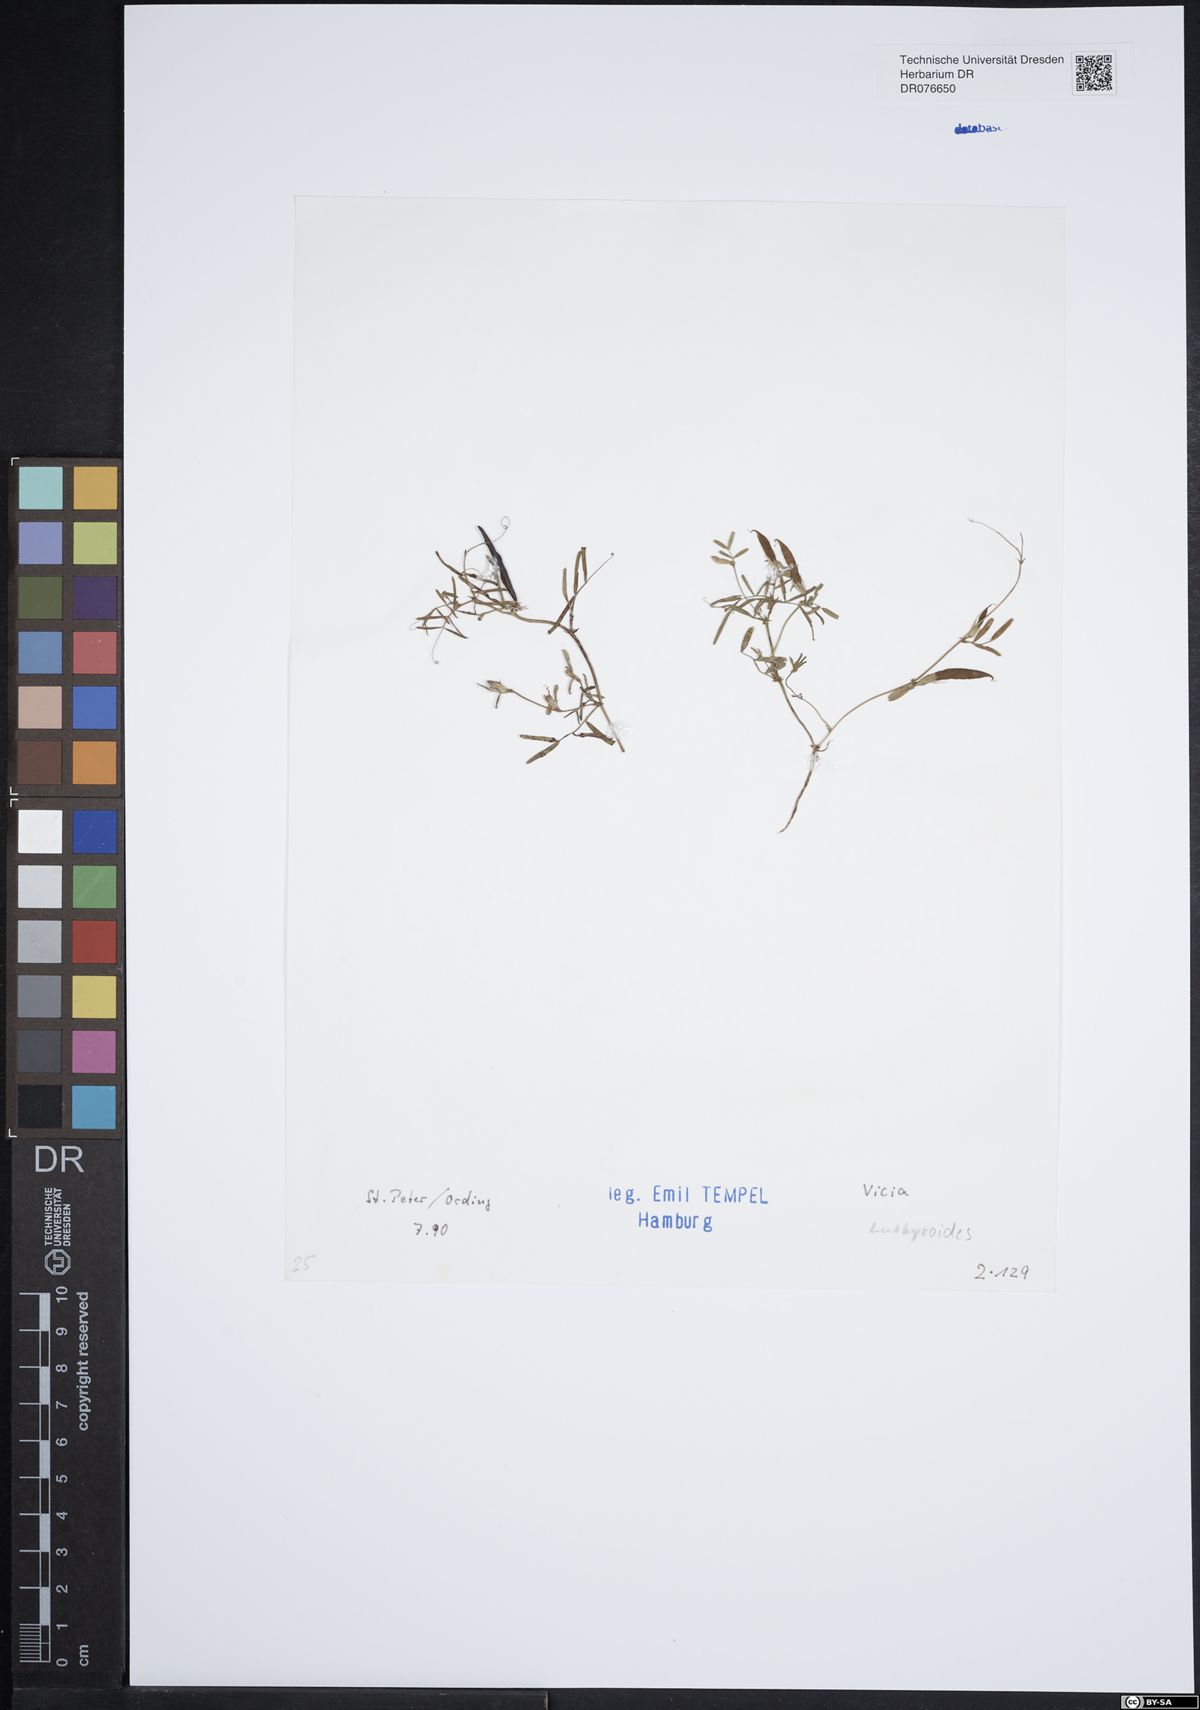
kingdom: Plantae
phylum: Tracheophyta
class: Magnoliopsida
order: Fabales
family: Fabaceae
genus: Vicia
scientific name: Vicia lathyroides
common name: Spring vetch
